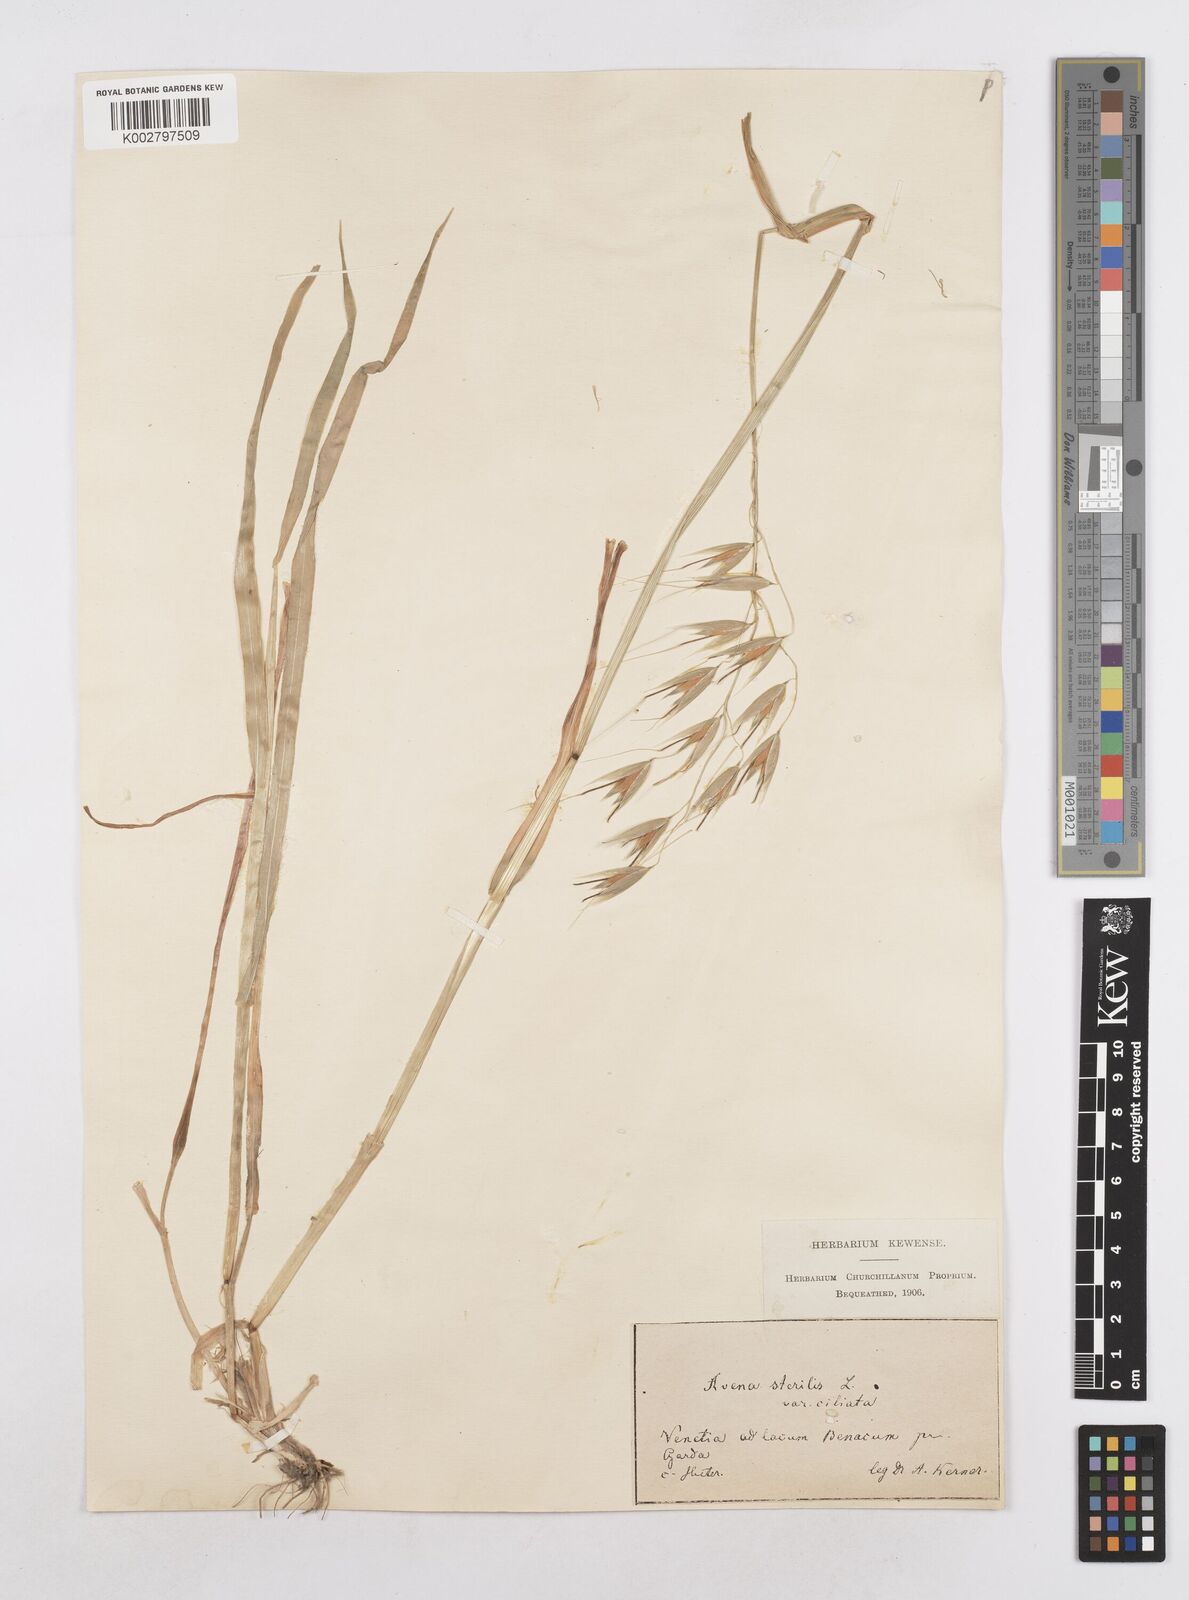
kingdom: Plantae
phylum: Tracheophyta
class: Liliopsida
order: Poales
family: Poaceae
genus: Avena
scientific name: Avena fatua
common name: Wild oat
